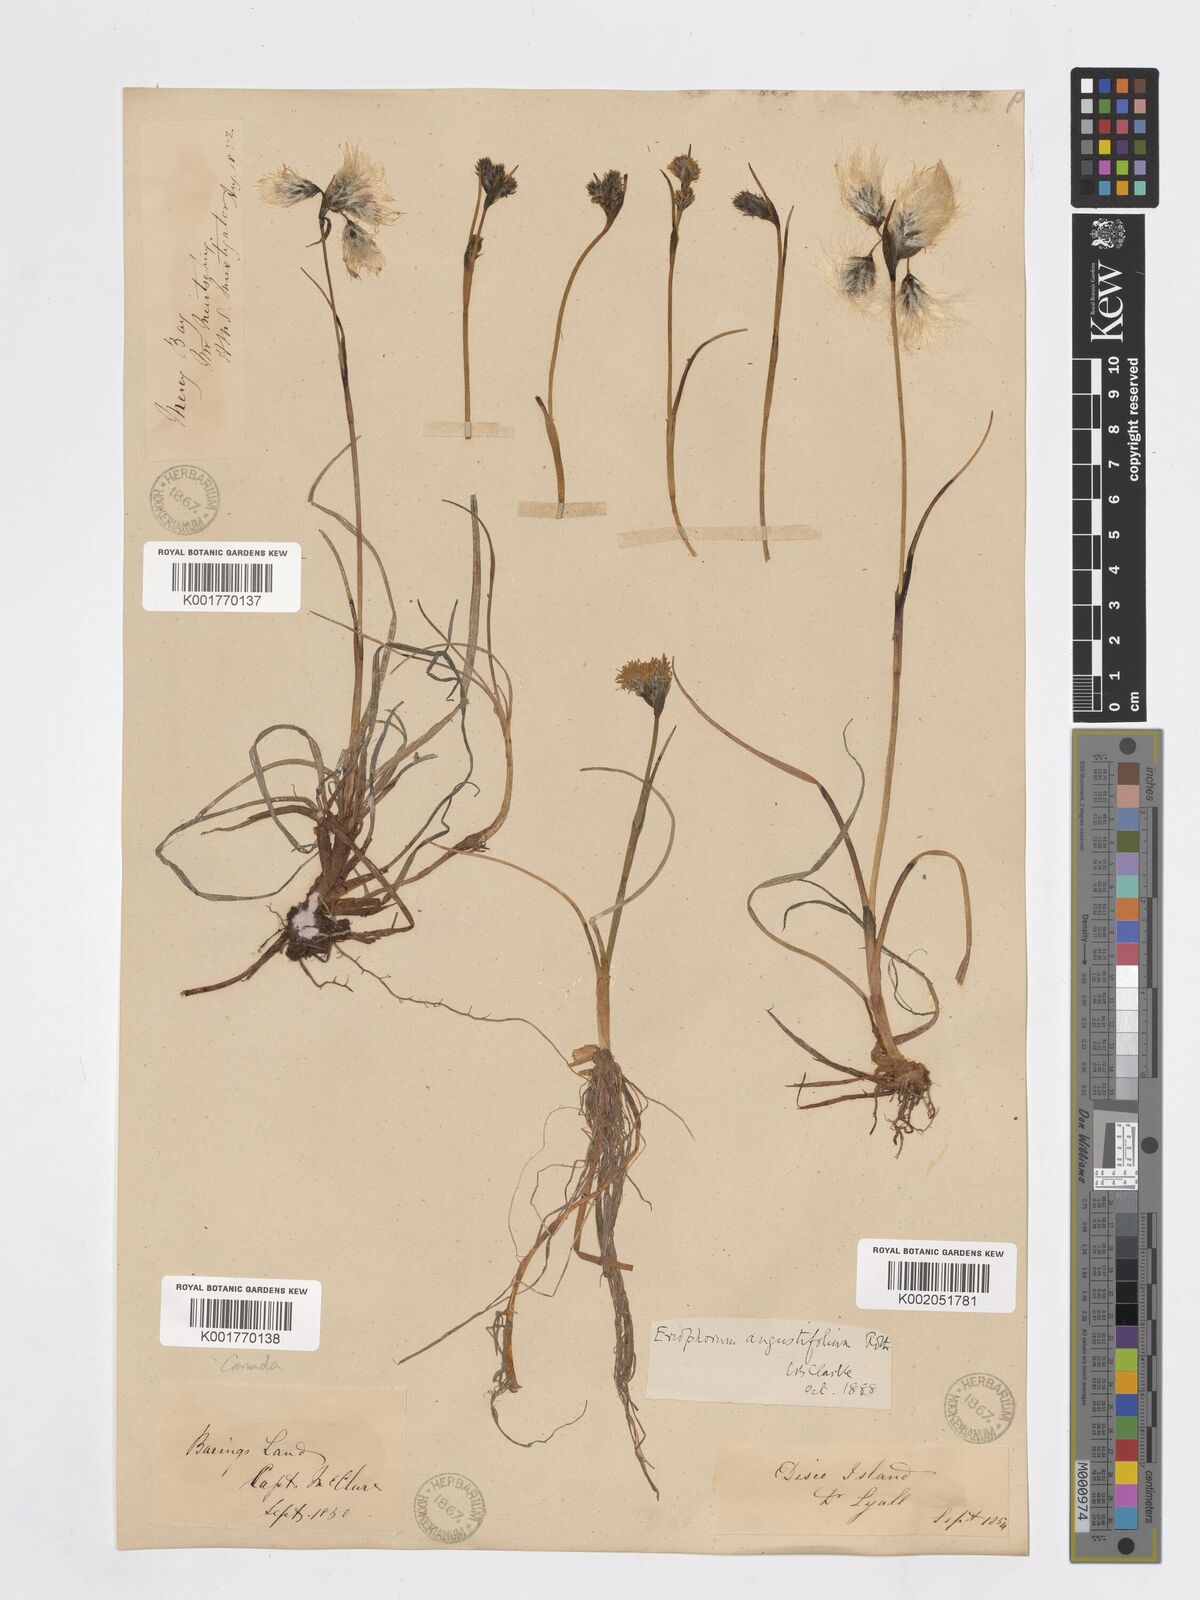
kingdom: Plantae
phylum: Tracheophyta
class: Liliopsida
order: Poales
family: Cyperaceae
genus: Eriophorum
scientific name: Eriophorum angustifolium
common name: Common cottongrass
